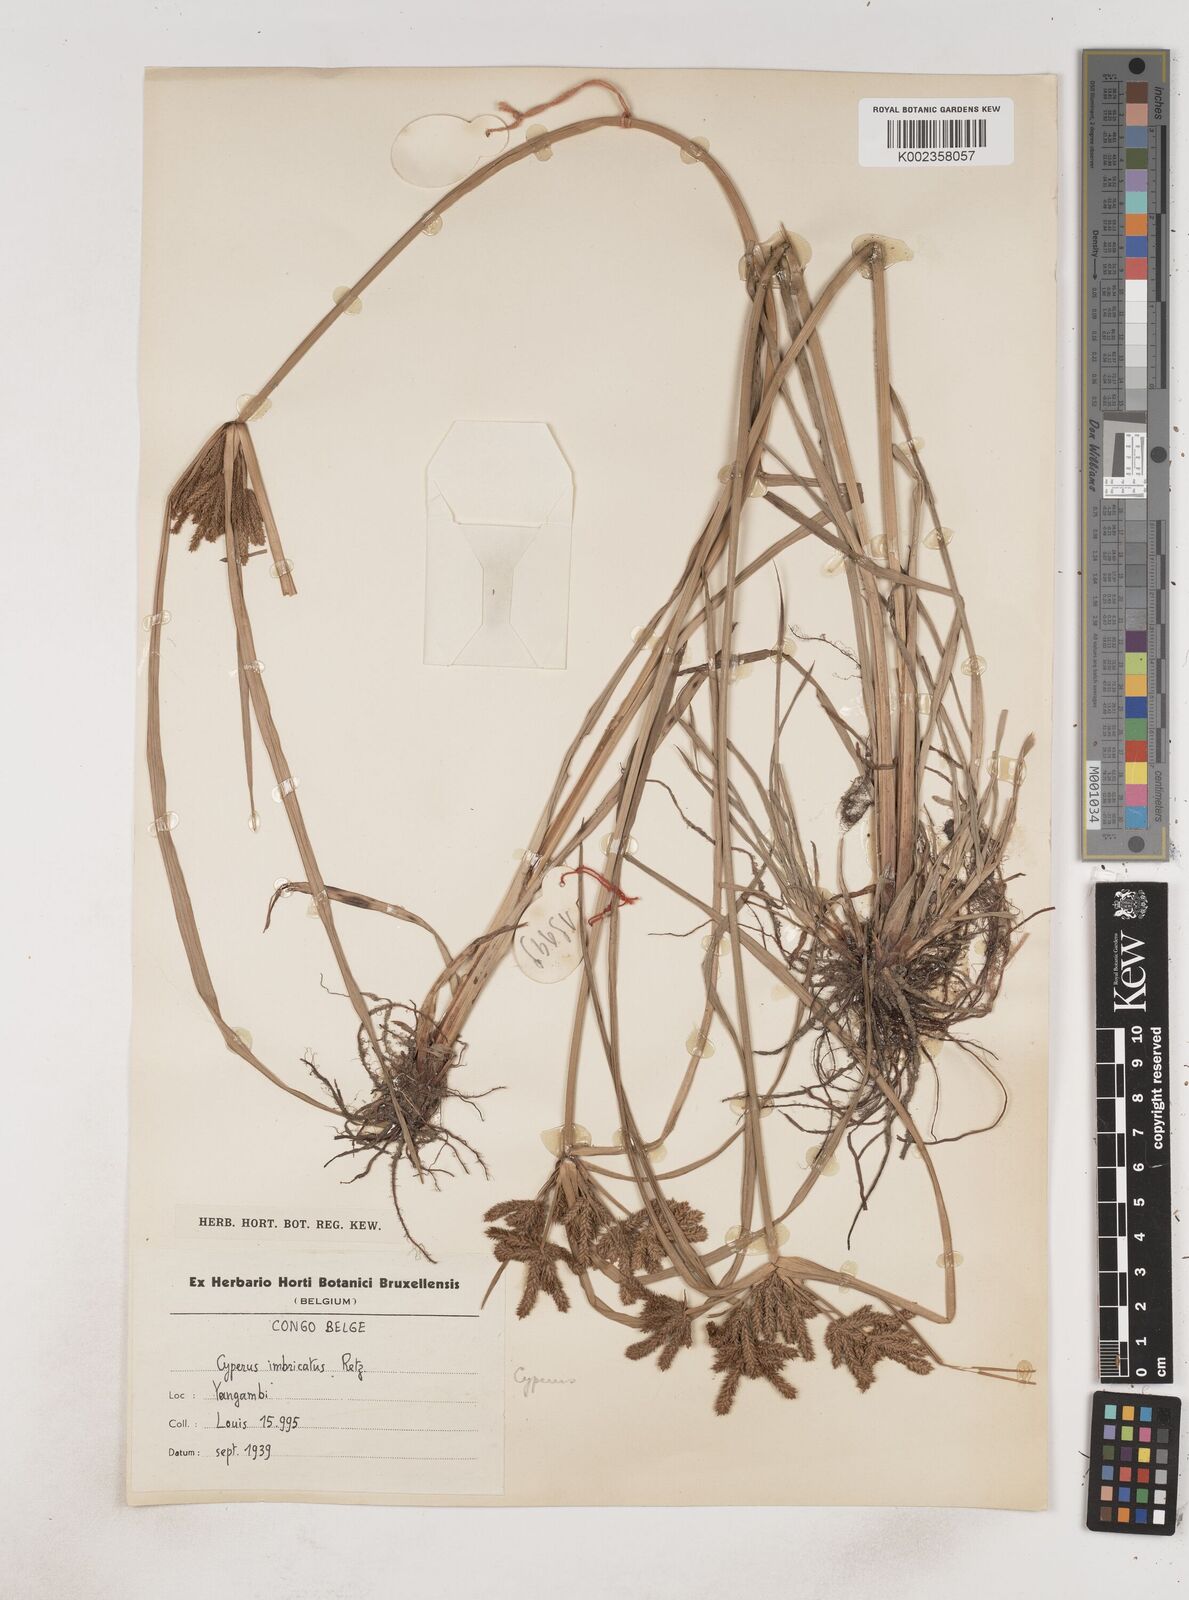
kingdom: Plantae
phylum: Tracheophyta
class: Liliopsida
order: Poales
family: Cyperaceae
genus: Cyperus
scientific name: Cyperus imbricatus
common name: Shingle flatsedge
